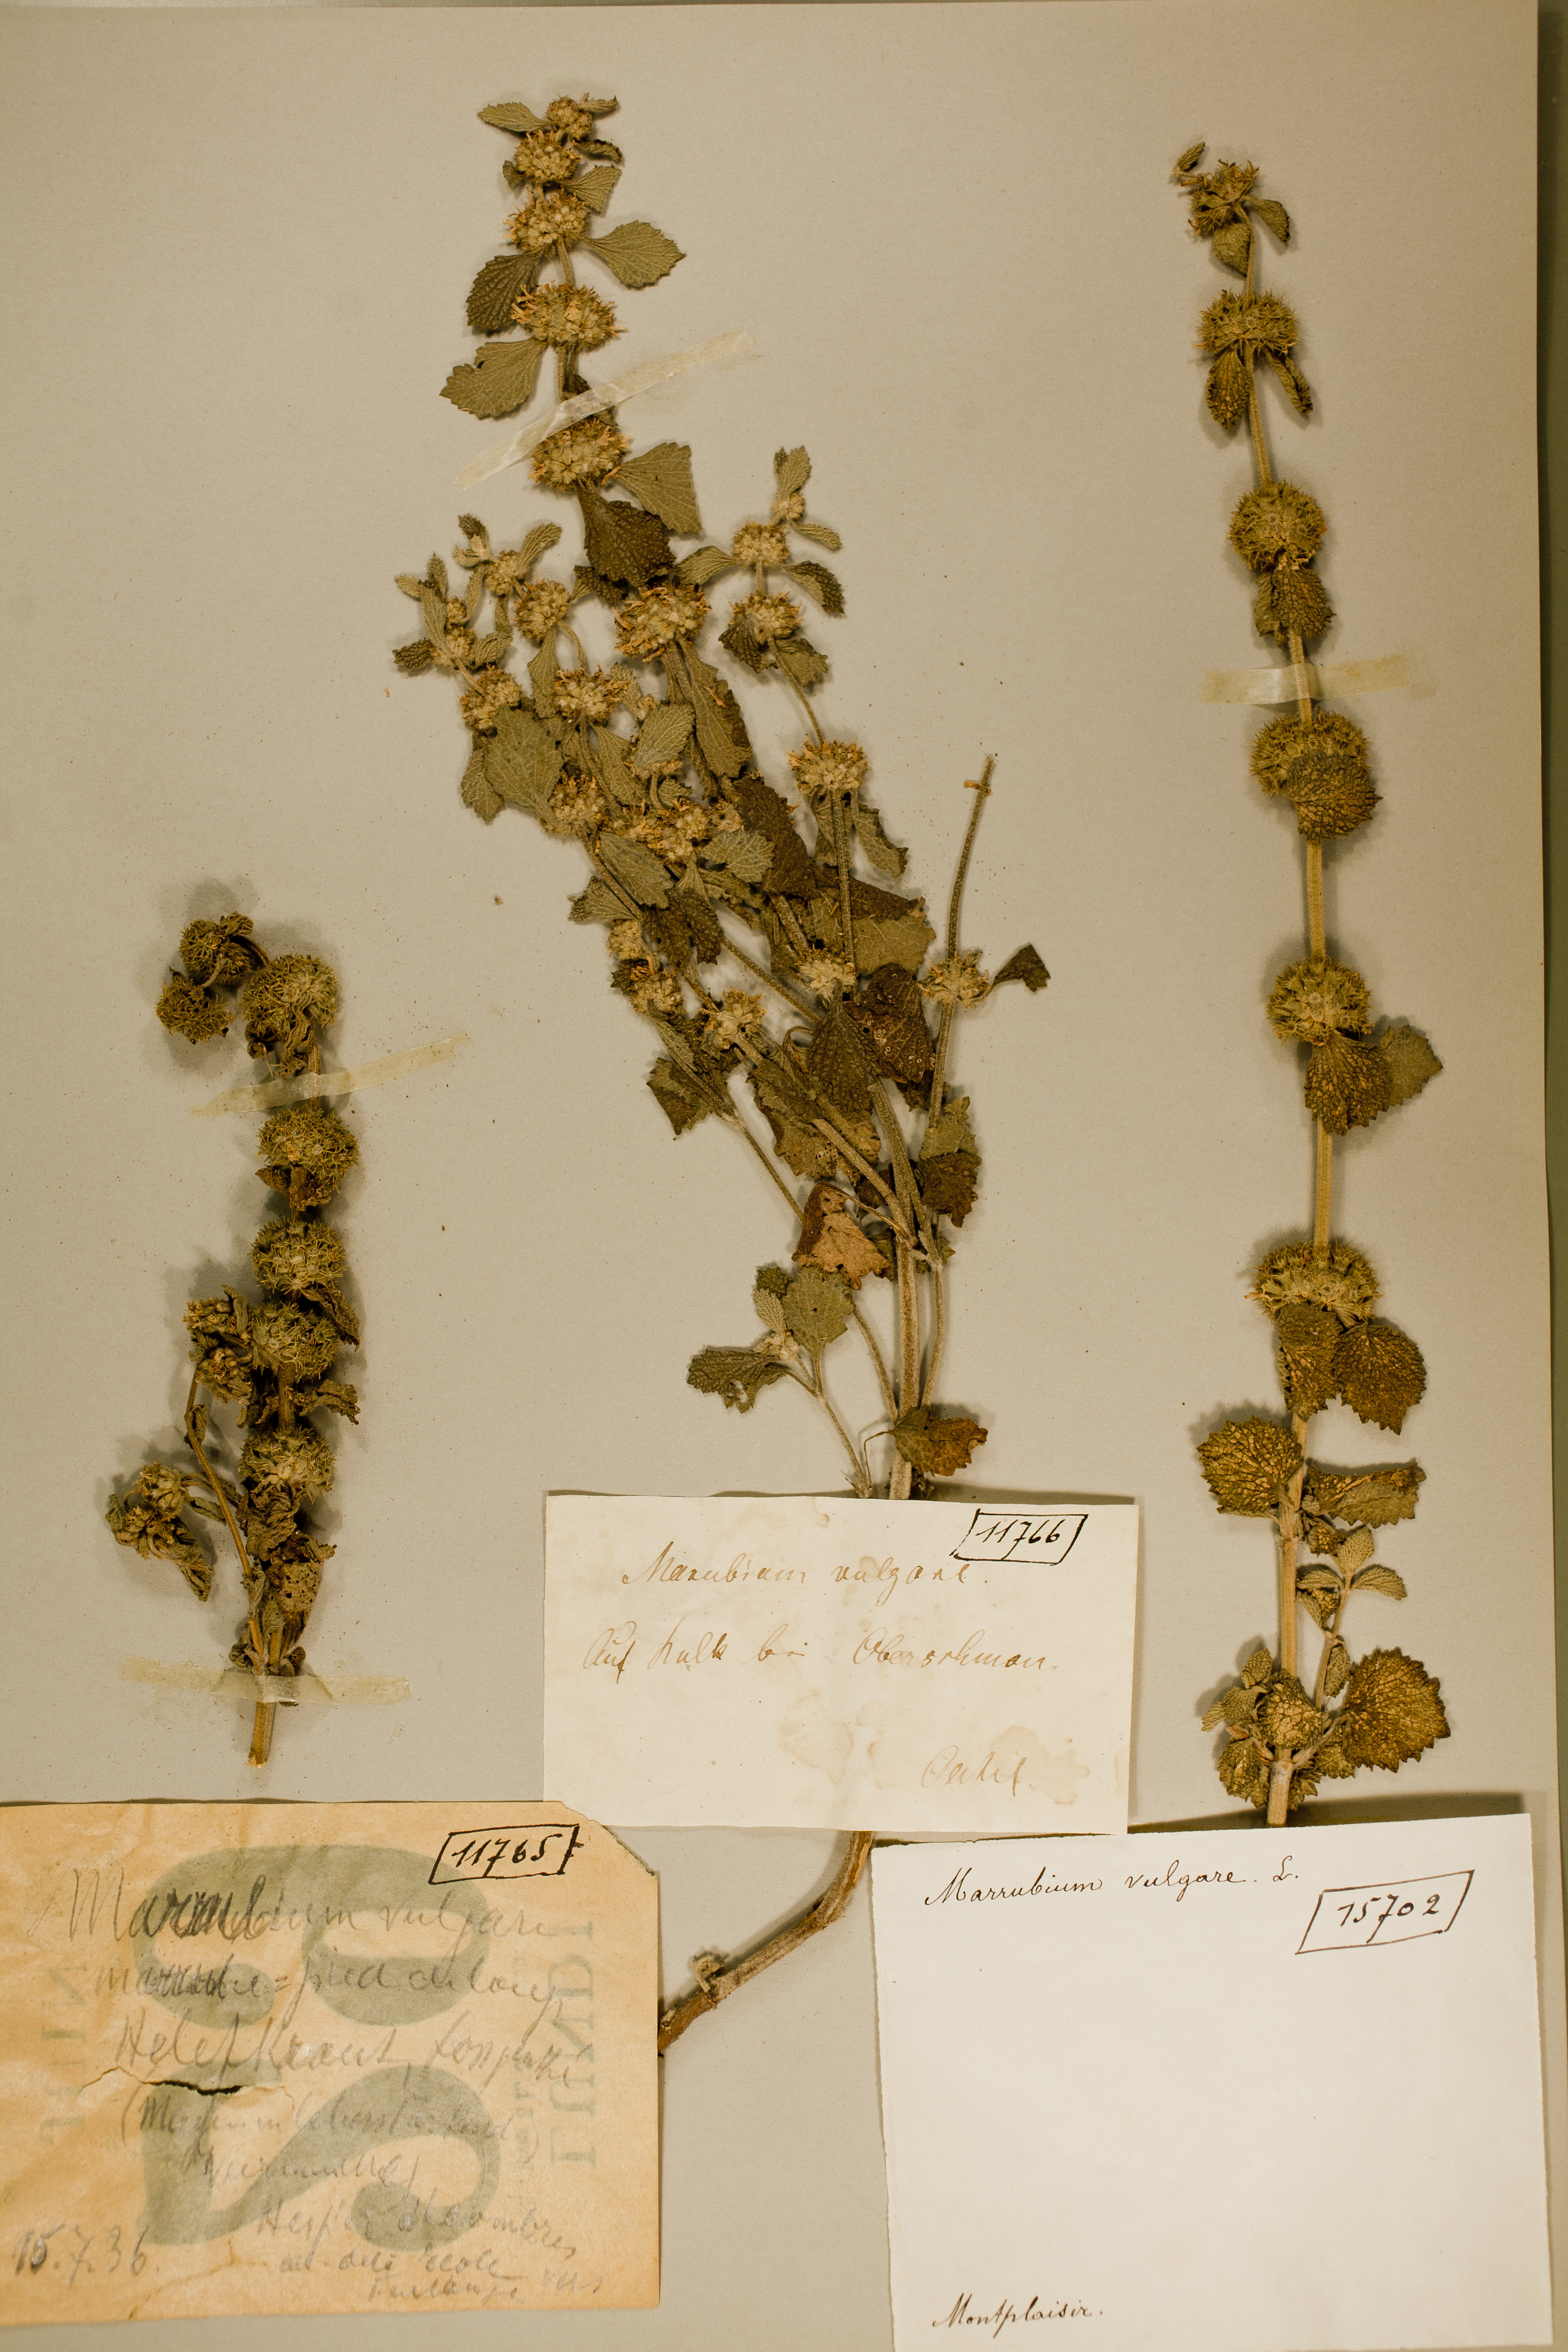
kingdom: Plantae
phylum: Tracheophyta
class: Magnoliopsida
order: Lamiales
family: Lamiaceae
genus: Marrubium
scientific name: Marrubium vulgare
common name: Horehound
